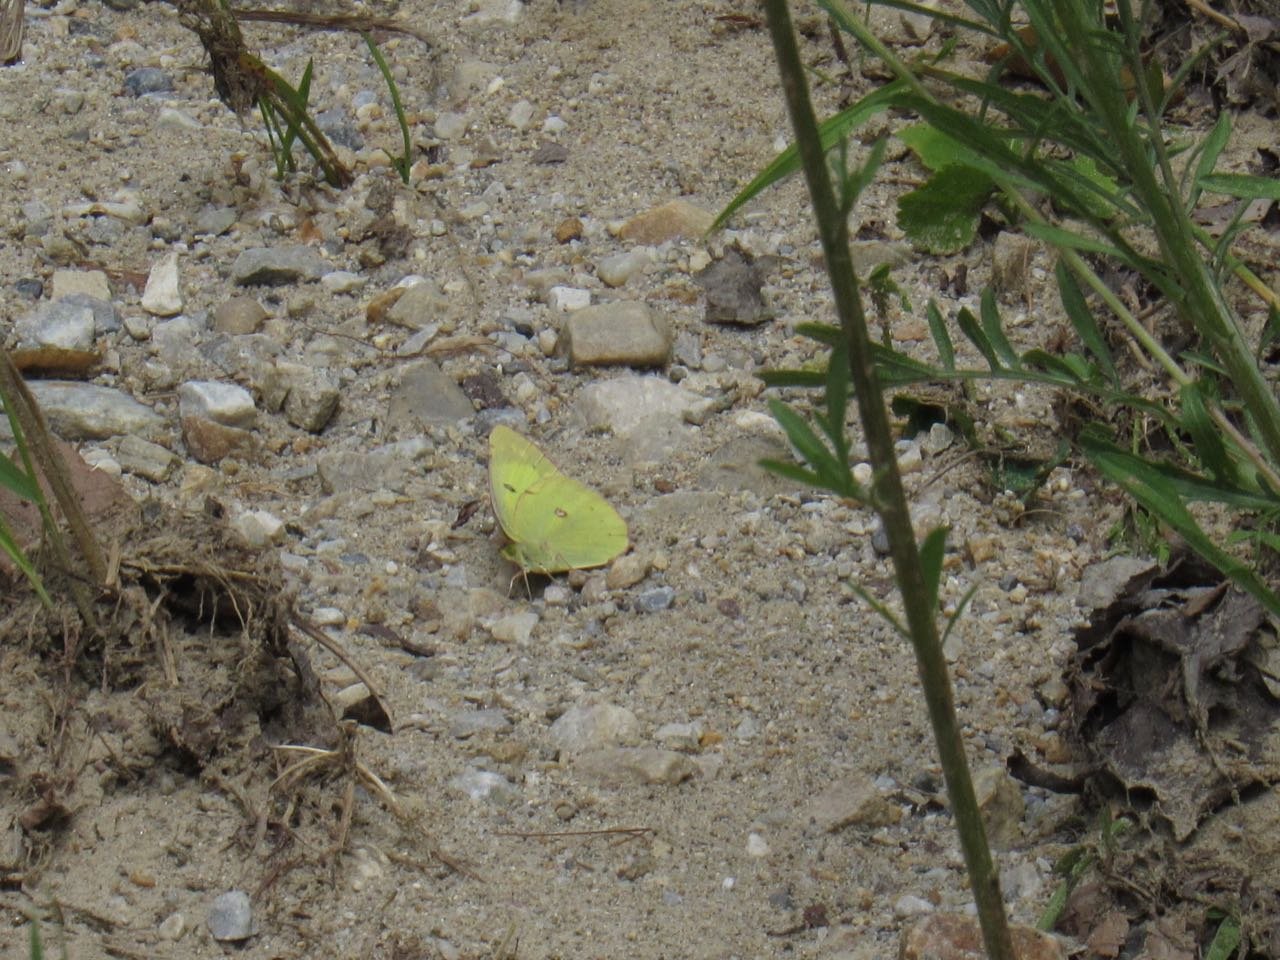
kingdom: Animalia
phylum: Arthropoda
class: Insecta
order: Lepidoptera
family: Pieridae
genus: Colias
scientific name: Colias philodice
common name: Clouded Sulphur
